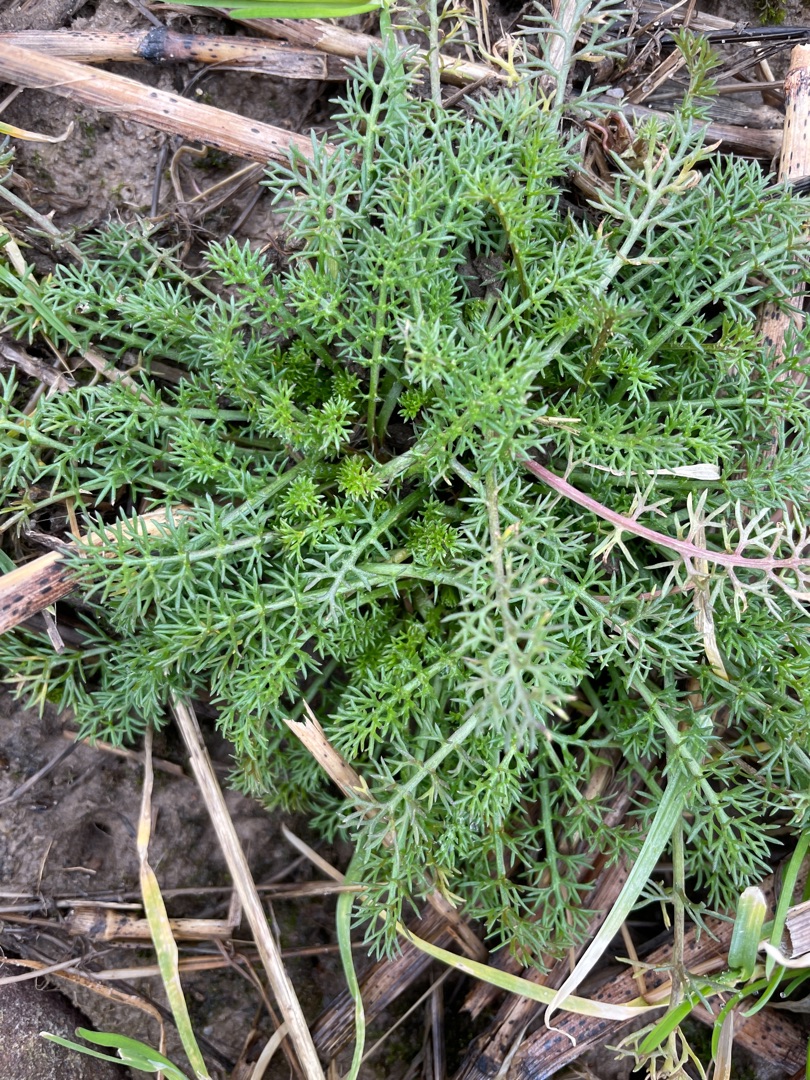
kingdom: Plantae
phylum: Tracheophyta
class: Magnoliopsida
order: Asterales
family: Asteraceae
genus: Achillea
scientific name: Achillea millefolium
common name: Almindelig røllike
